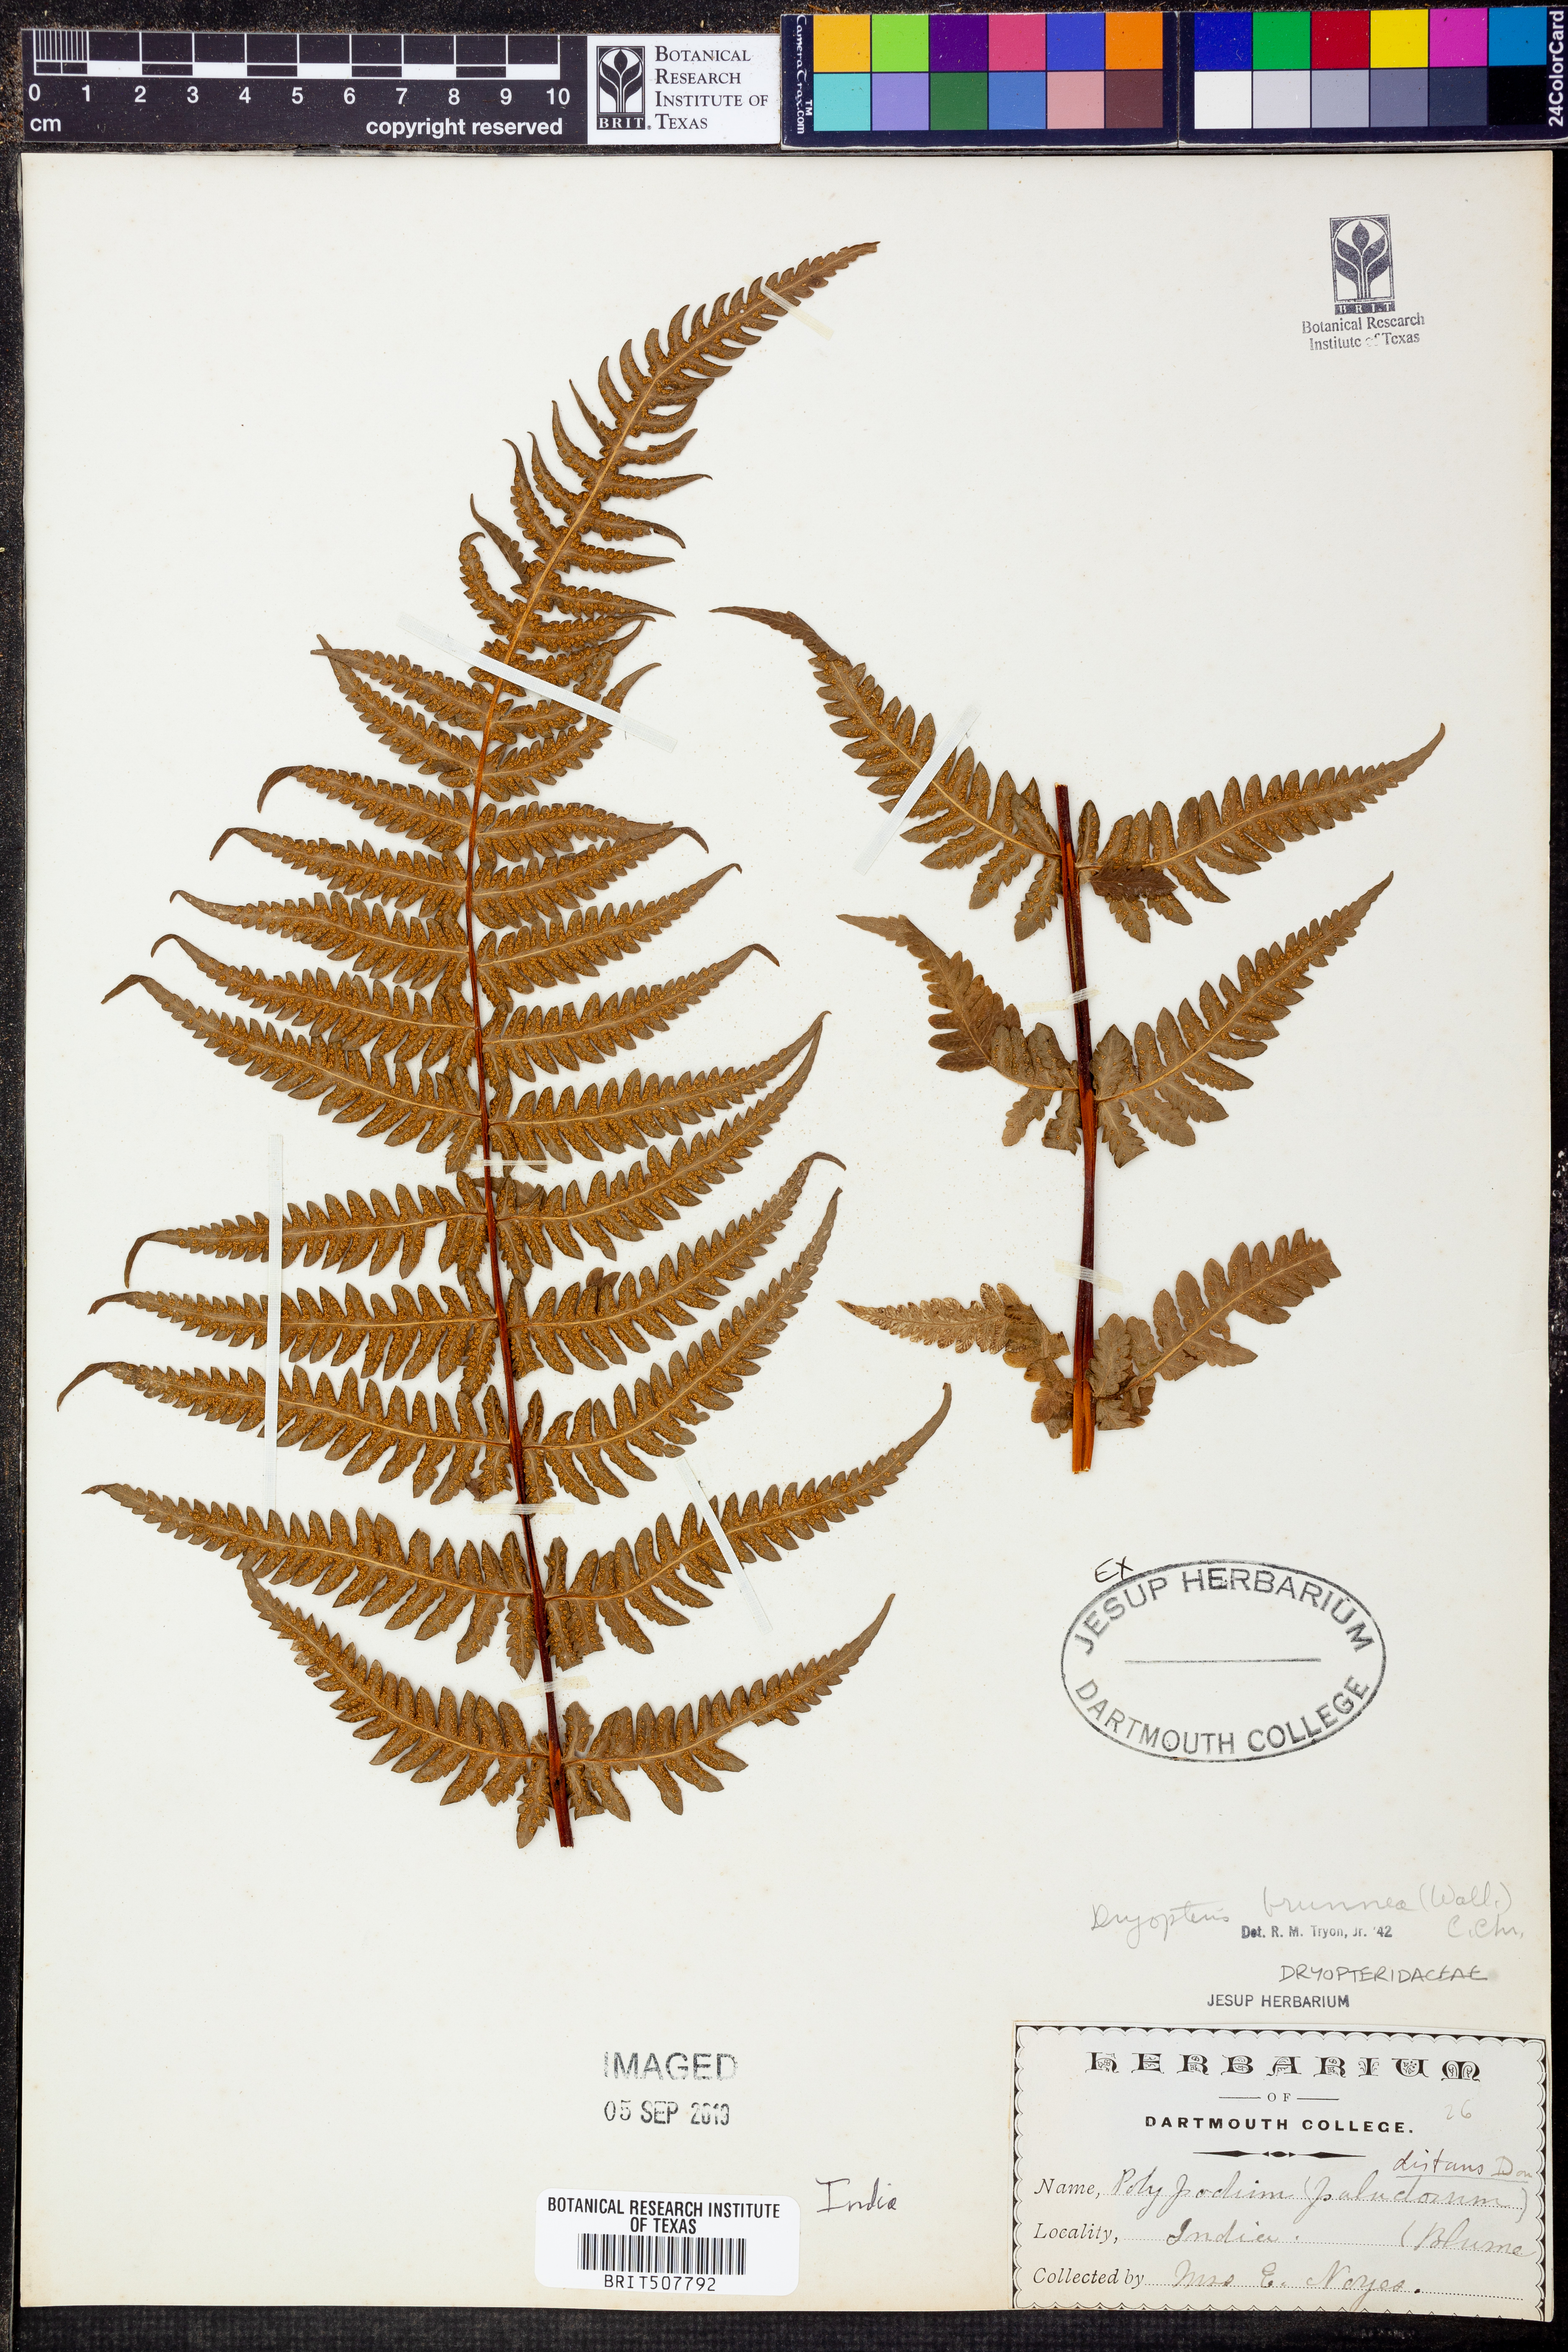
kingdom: Plantae
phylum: Tracheophyta
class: Polypodiopsida
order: Polypodiales
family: Thelypteridaceae
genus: Pseudophegopteris
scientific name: Pseudophegopteris microstegia
